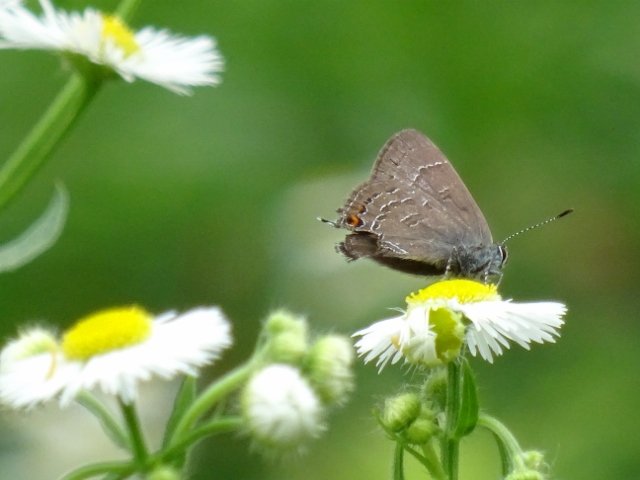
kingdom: Animalia
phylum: Arthropoda
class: Insecta
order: Lepidoptera
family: Lycaenidae
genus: Satyrium
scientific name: Satyrium calanus
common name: Banded Hairstreak
